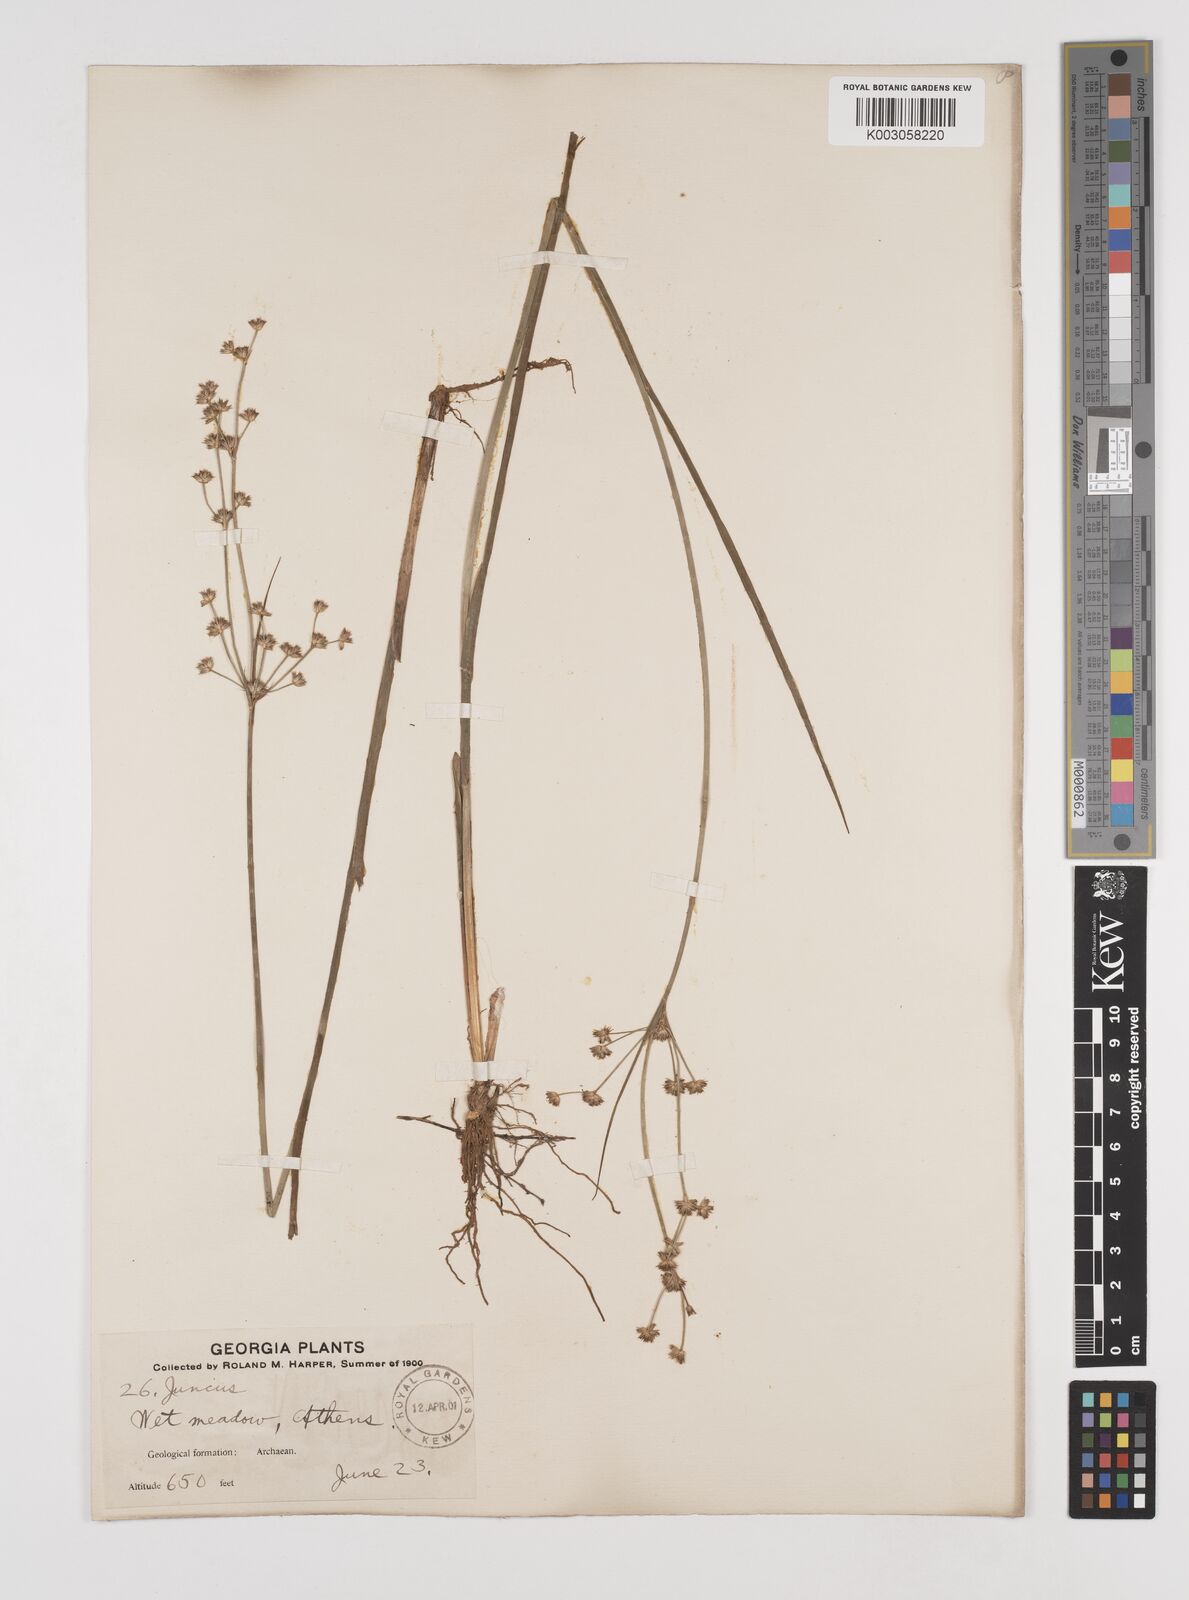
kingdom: Plantae
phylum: Tracheophyta
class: Liliopsida
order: Poales
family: Juncaceae
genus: Juncus
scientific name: Juncus
